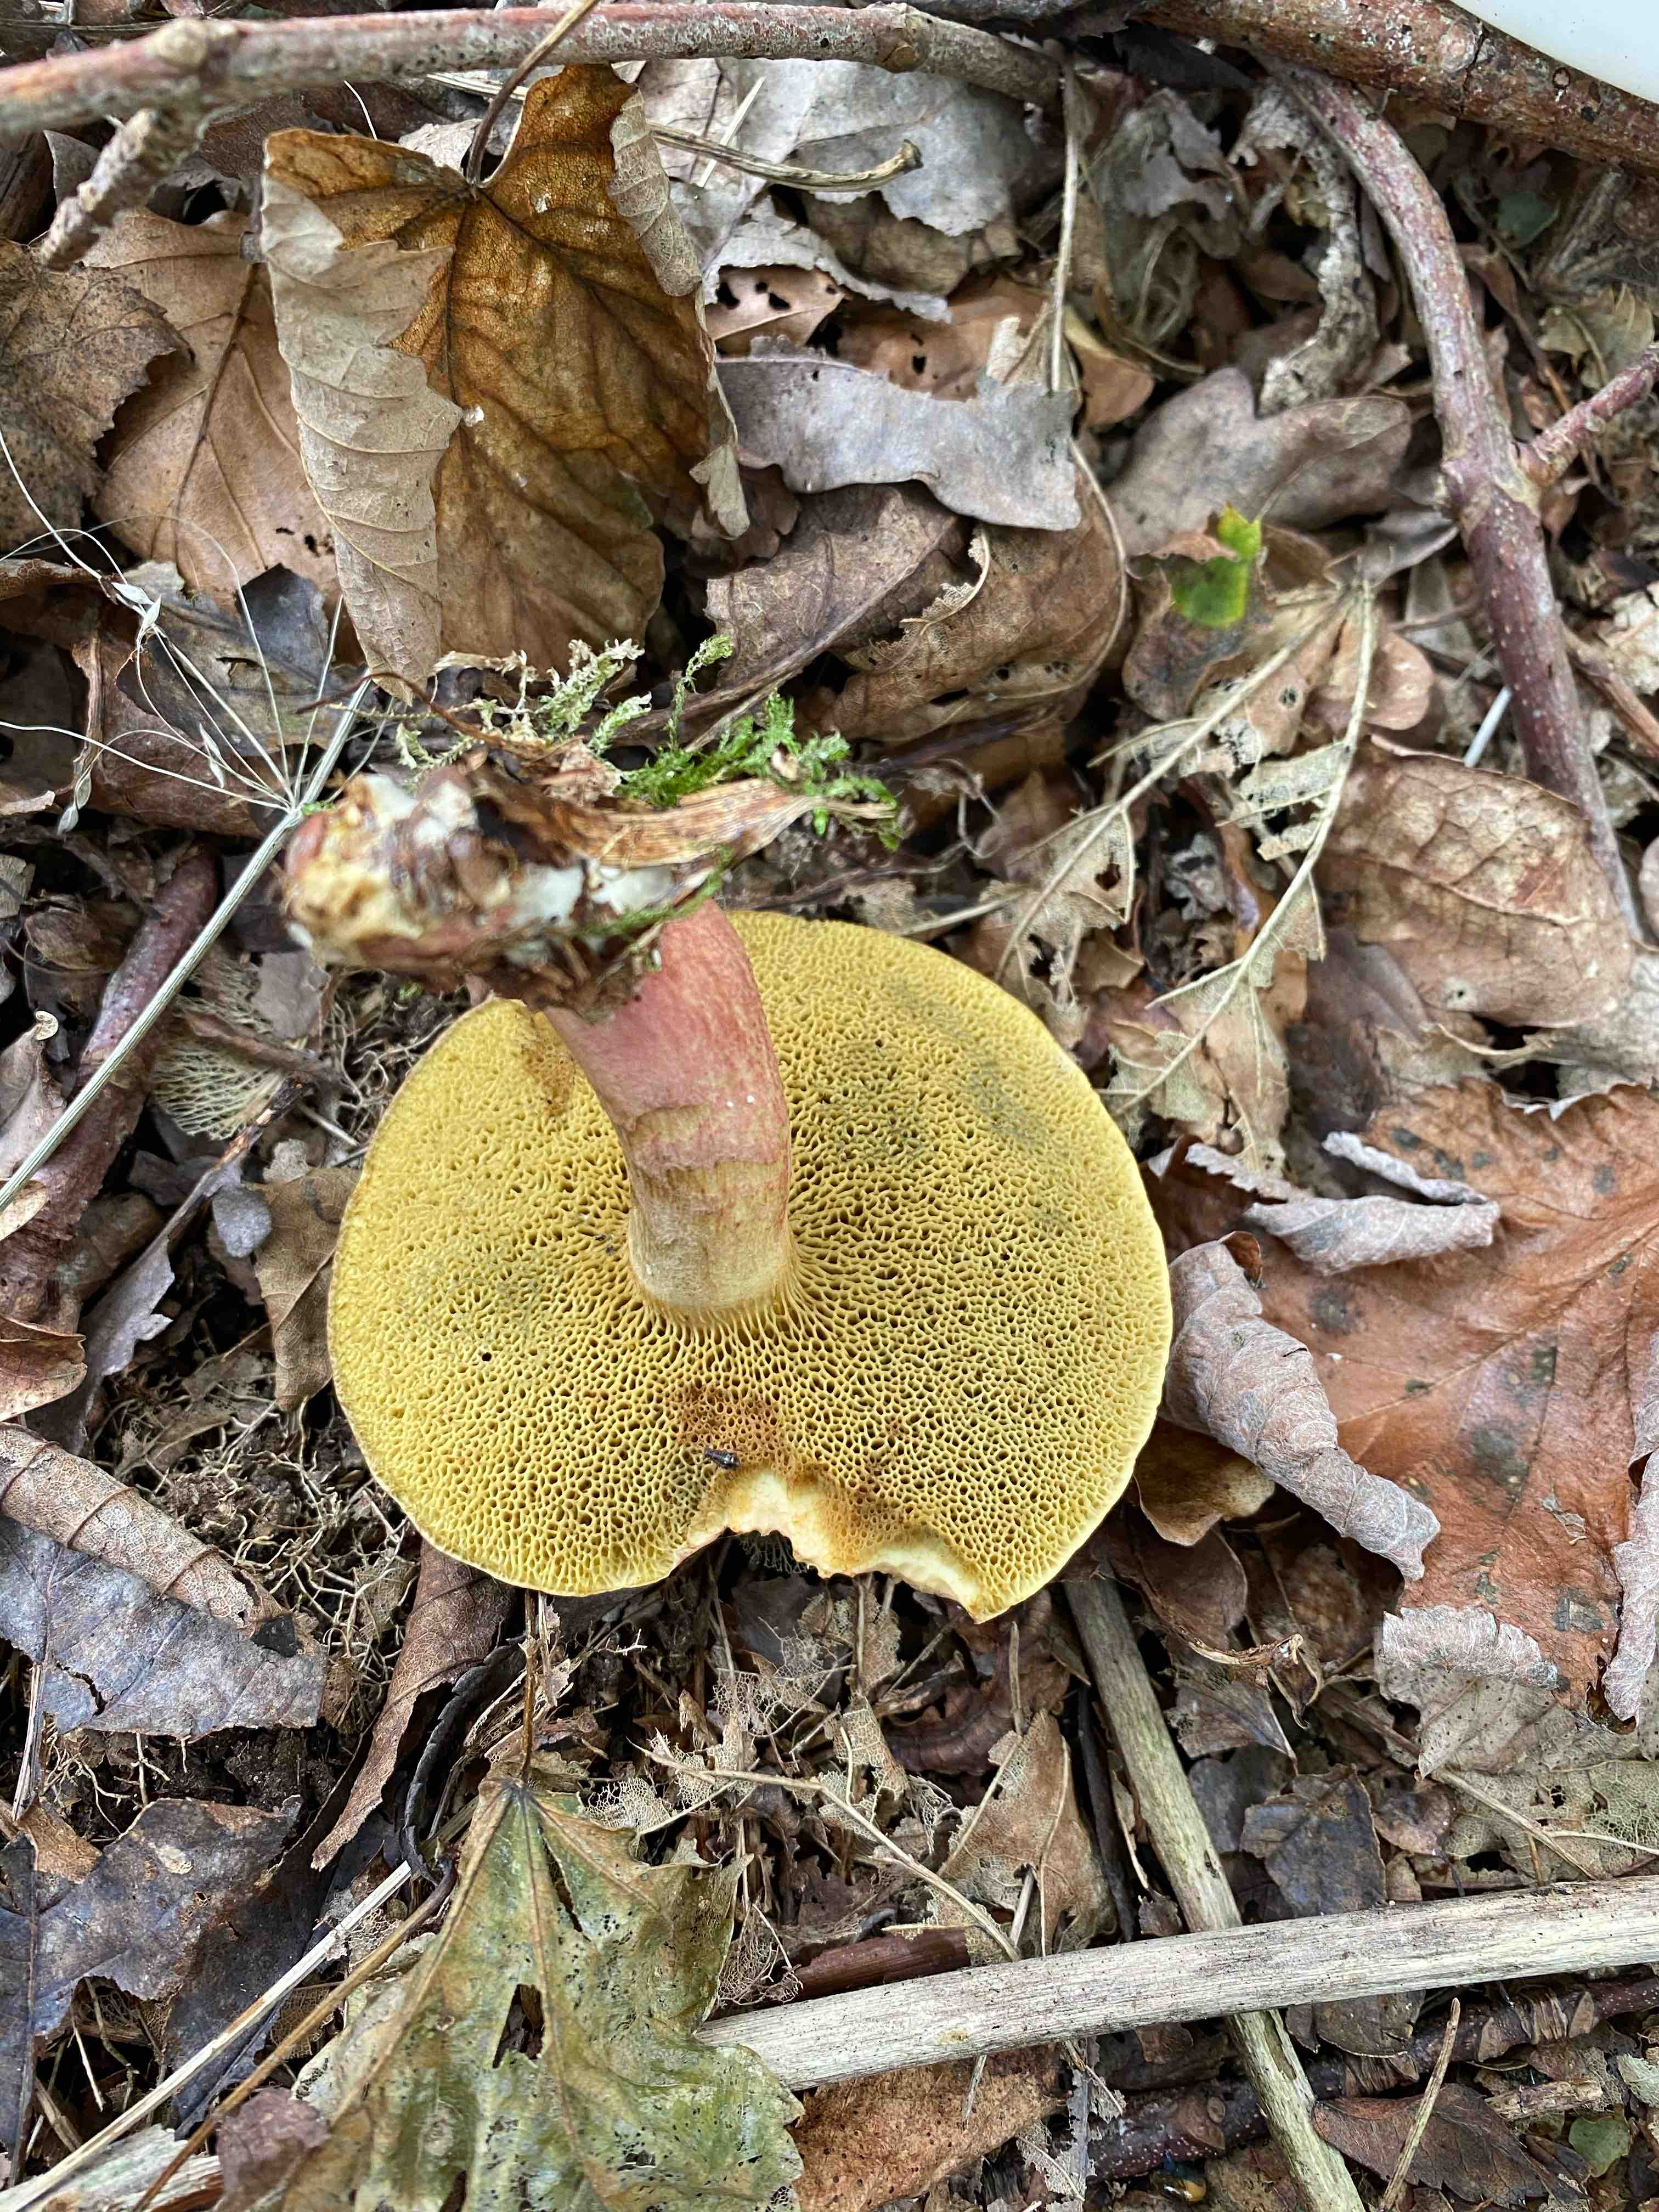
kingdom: Fungi
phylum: Basidiomycota
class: Agaricomycetes
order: Boletales
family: Boletaceae
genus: Xerocomellus
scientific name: Xerocomellus chrysenteron
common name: rødsprukken rørhat
